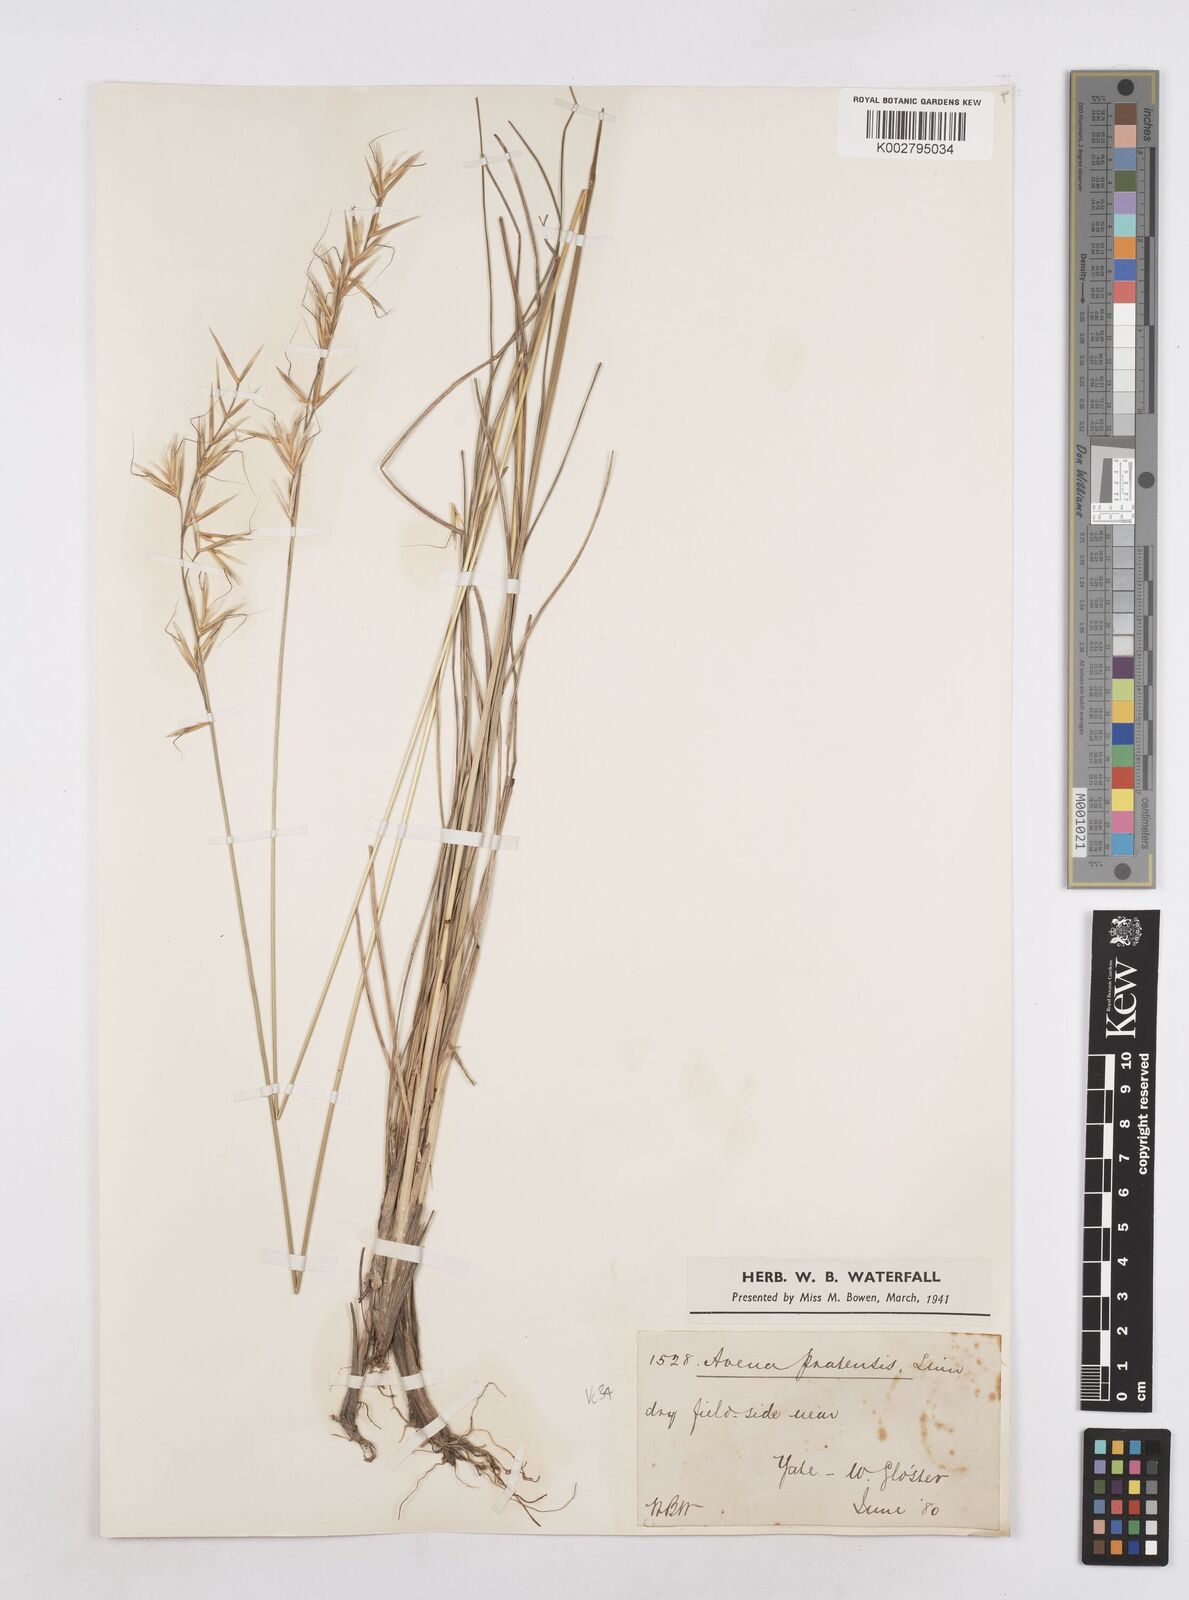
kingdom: Plantae
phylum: Tracheophyta
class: Liliopsida
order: Poales
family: Poaceae
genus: Helictochloa
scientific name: Helictochloa pratensis
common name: Meadow oat grass
